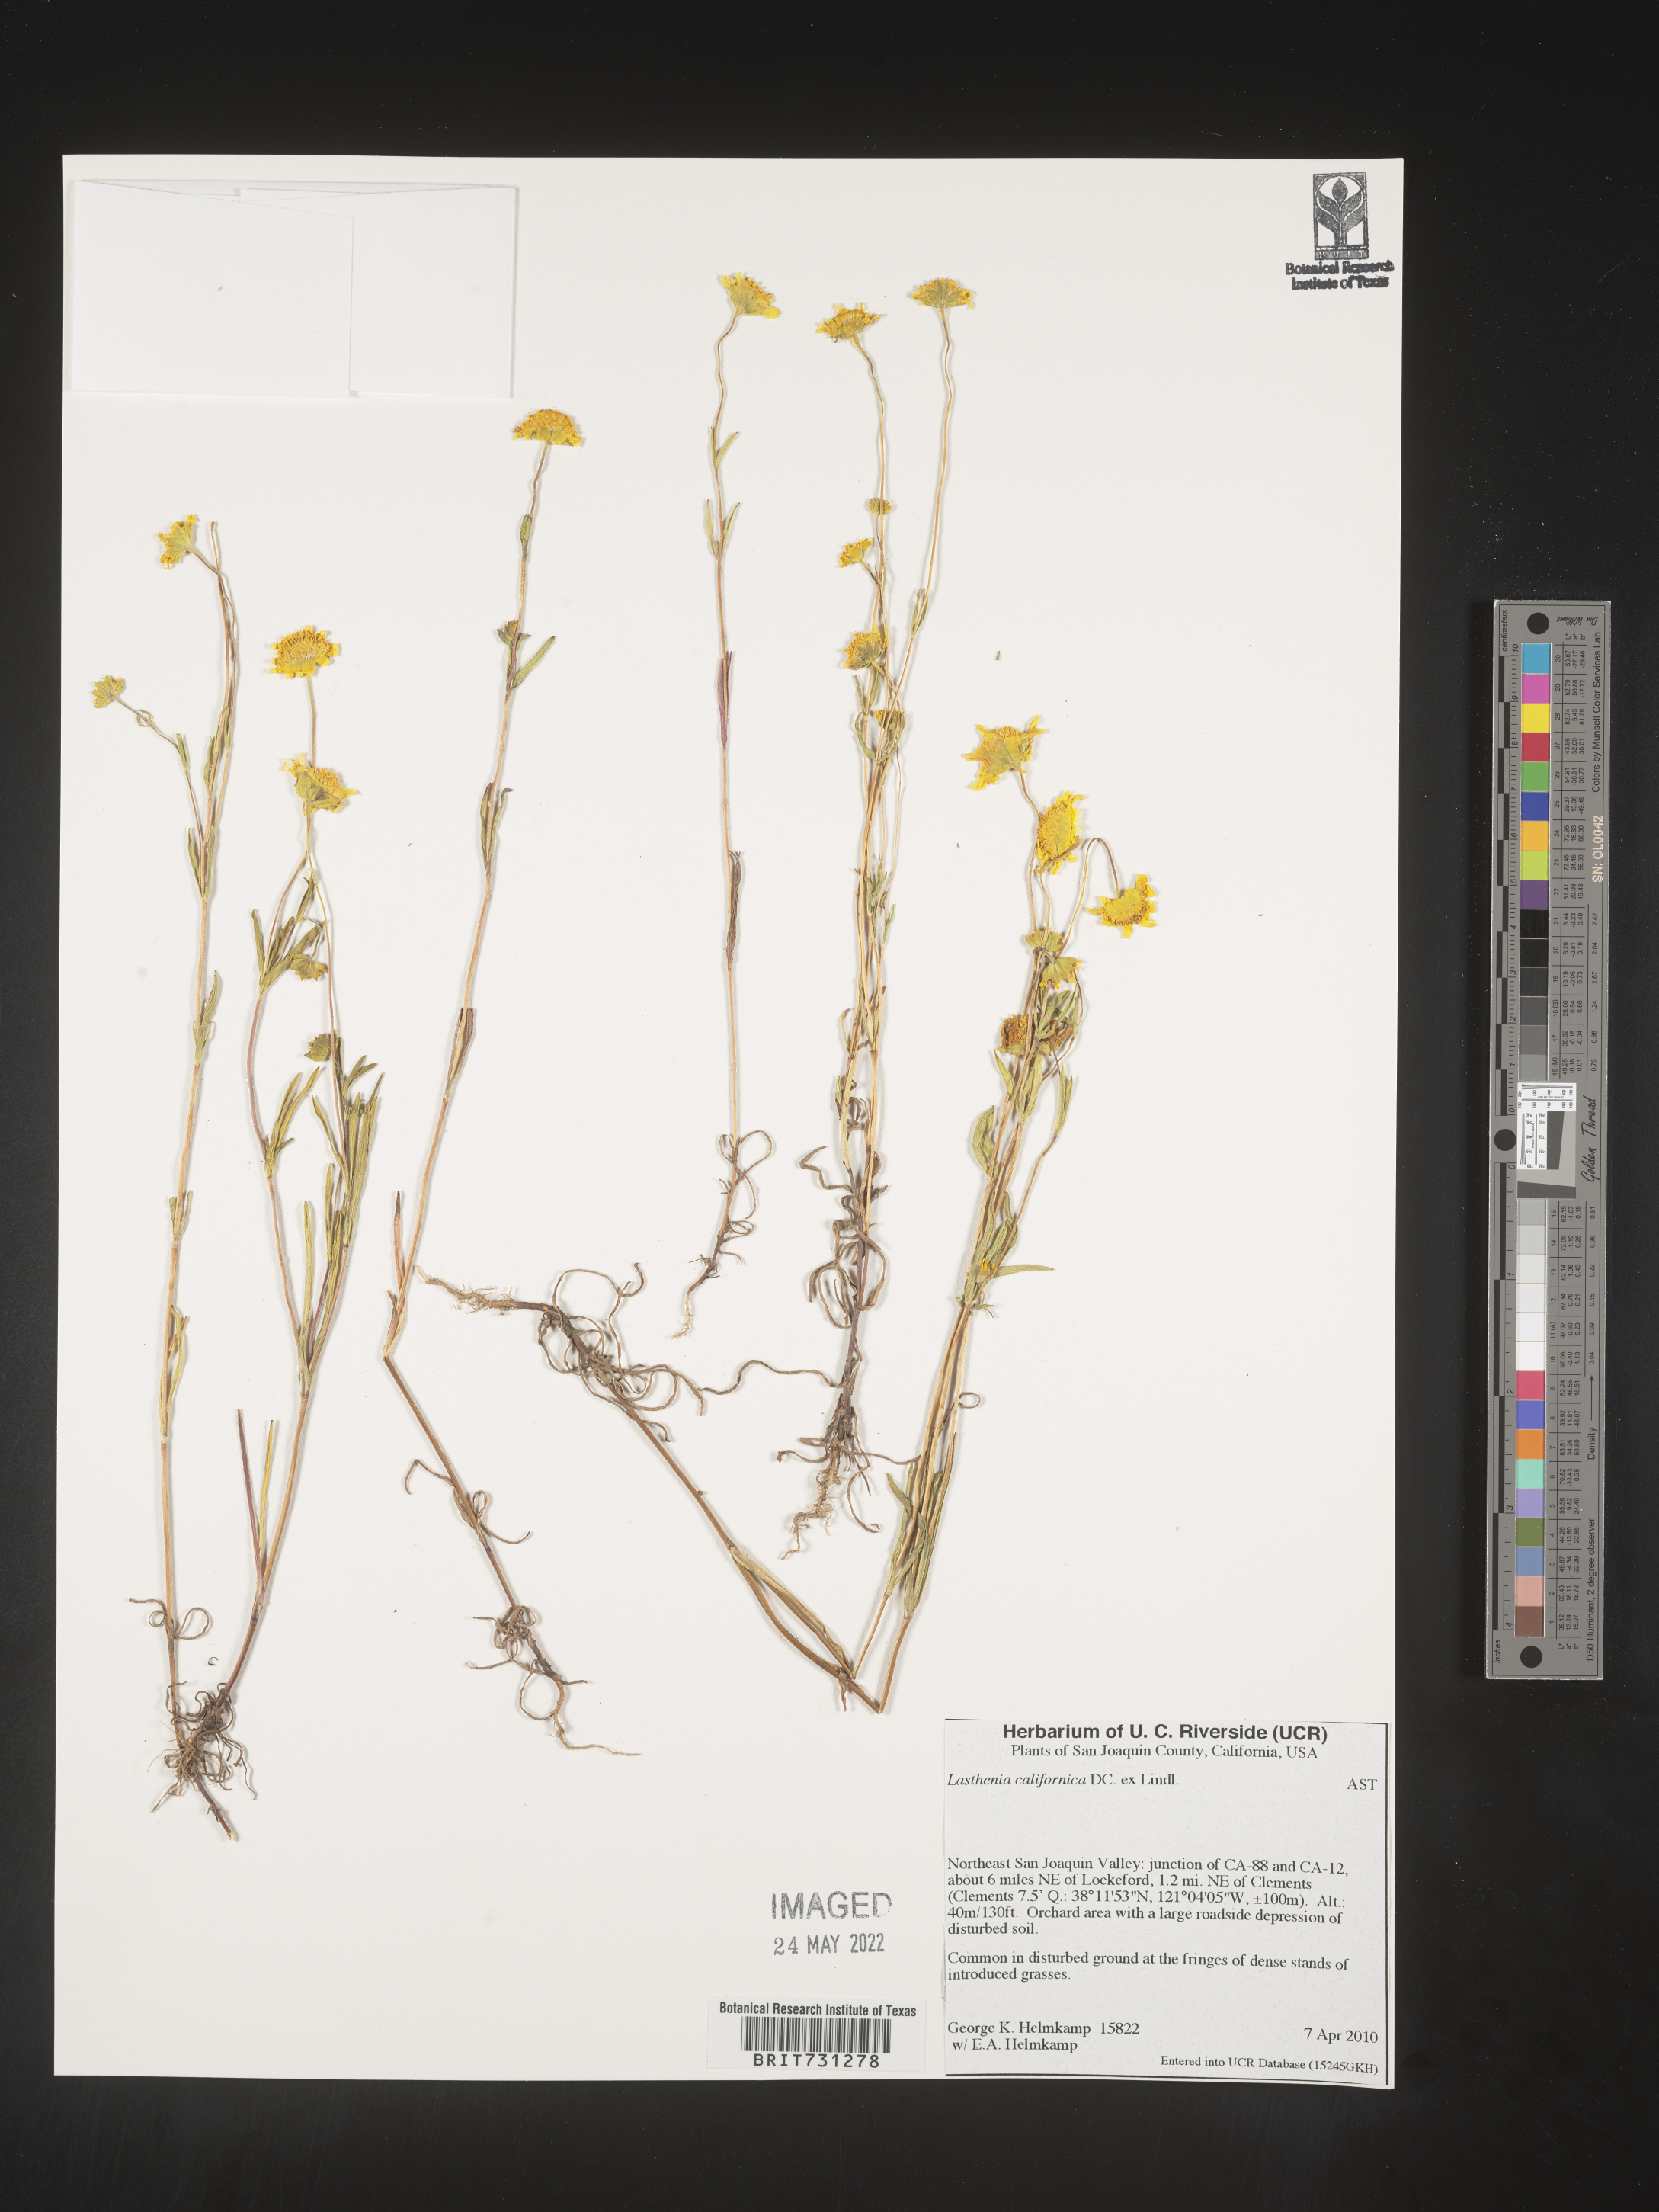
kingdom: Plantae
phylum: Tracheophyta
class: Magnoliopsida
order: Asterales
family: Asteraceae
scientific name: Asteraceae
